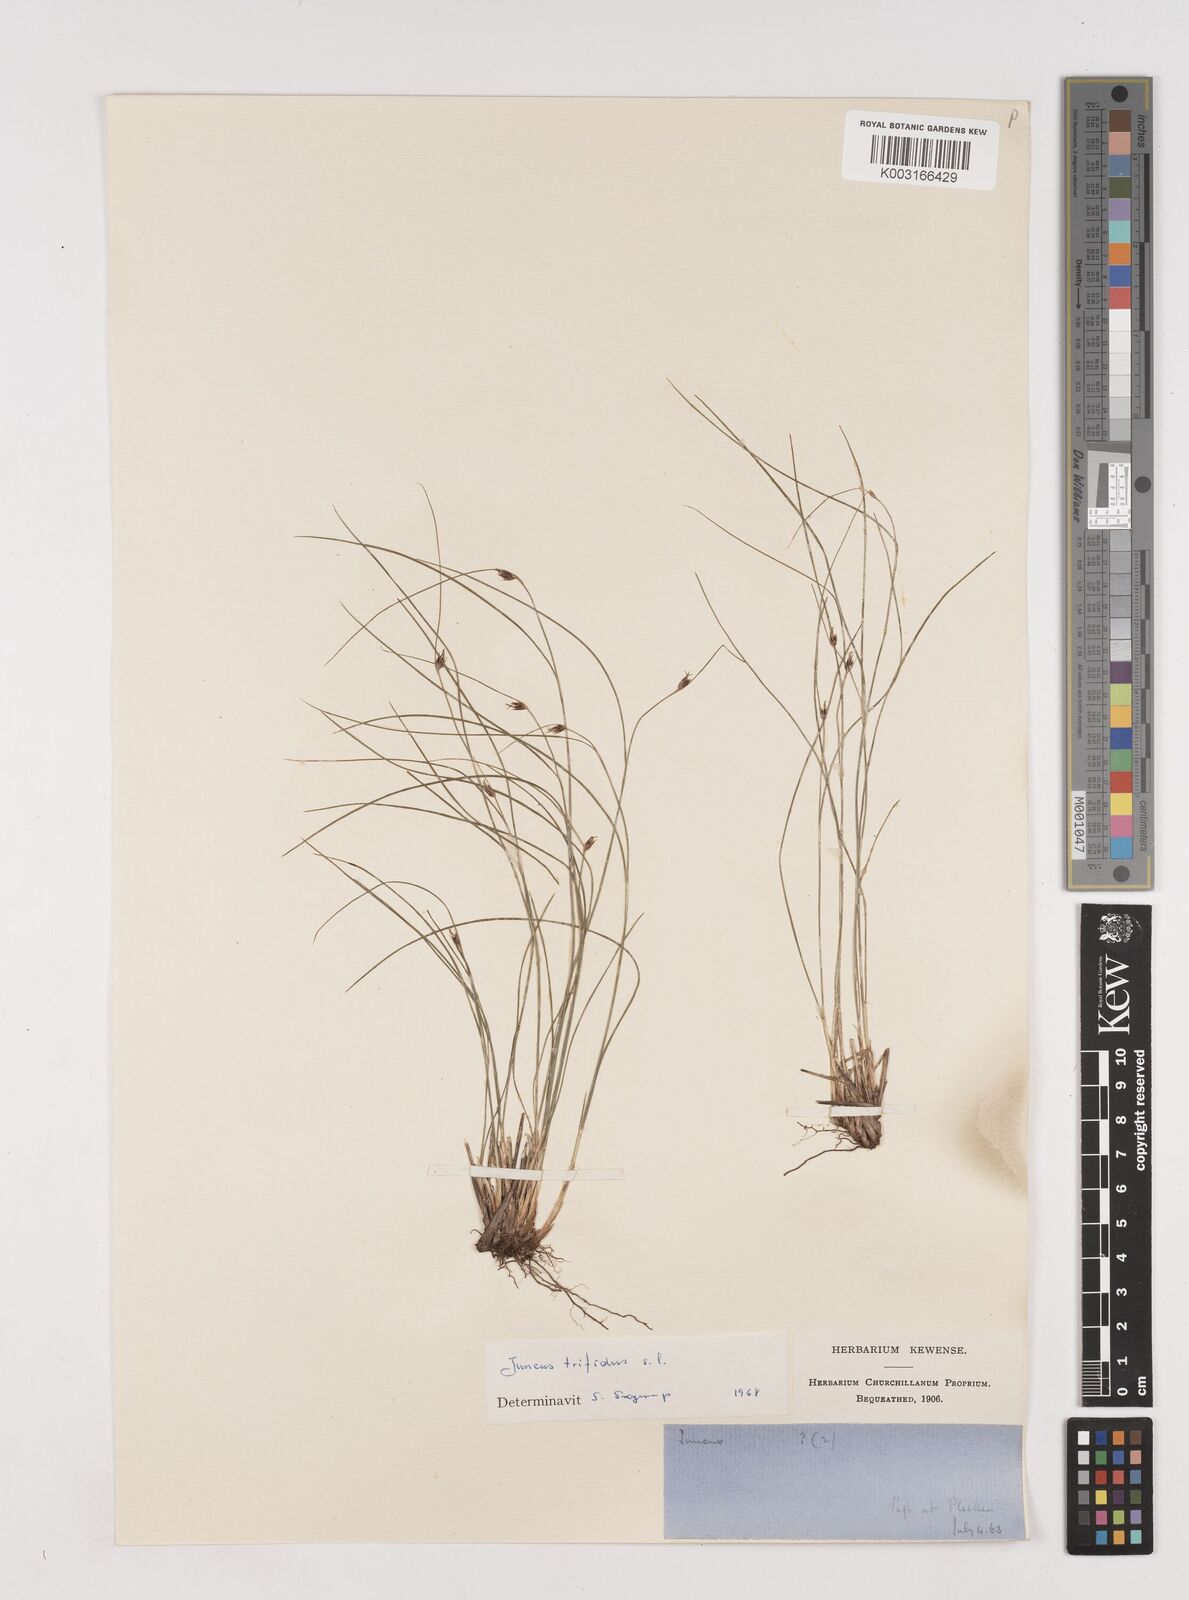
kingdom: Plantae
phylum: Tracheophyta
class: Liliopsida
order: Poales
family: Juncaceae
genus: Oreojuncus
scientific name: Oreojuncus trifidus
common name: Highland rush
